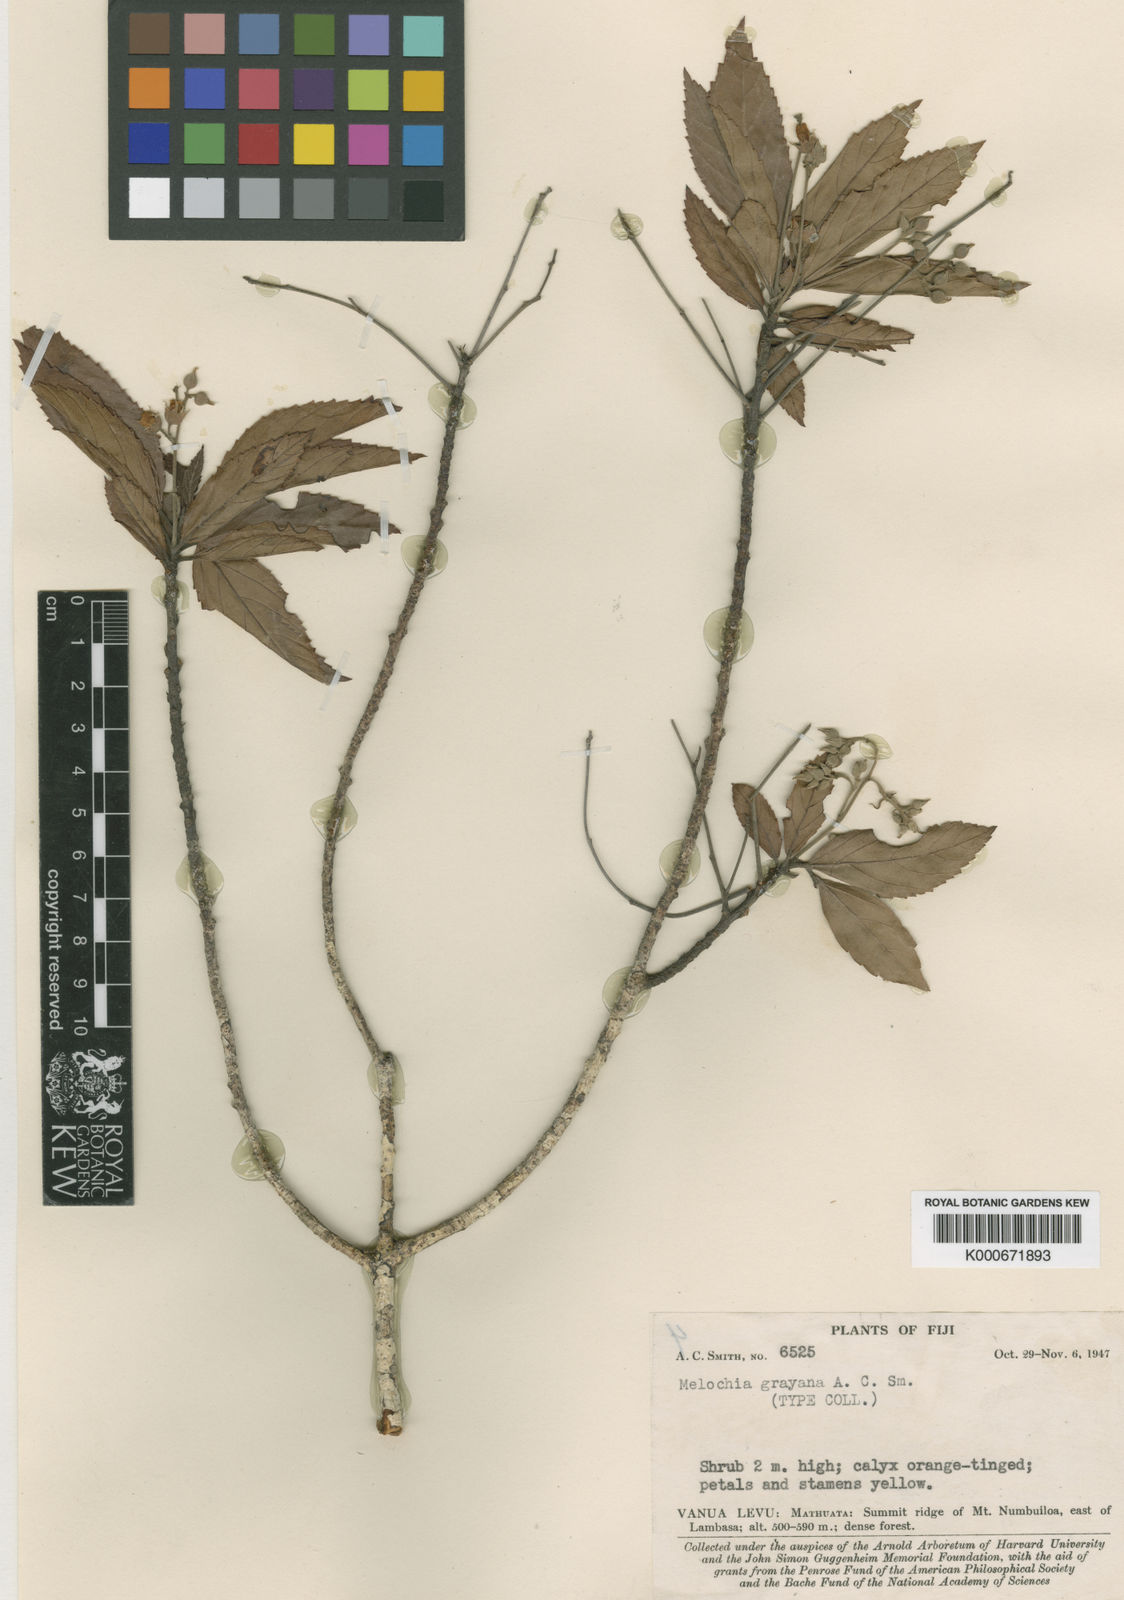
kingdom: Plantae
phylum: Tracheophyta
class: Magnoliopsida
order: Malvales
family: Malvaceae
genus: Melochia
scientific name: Melochia grayana
